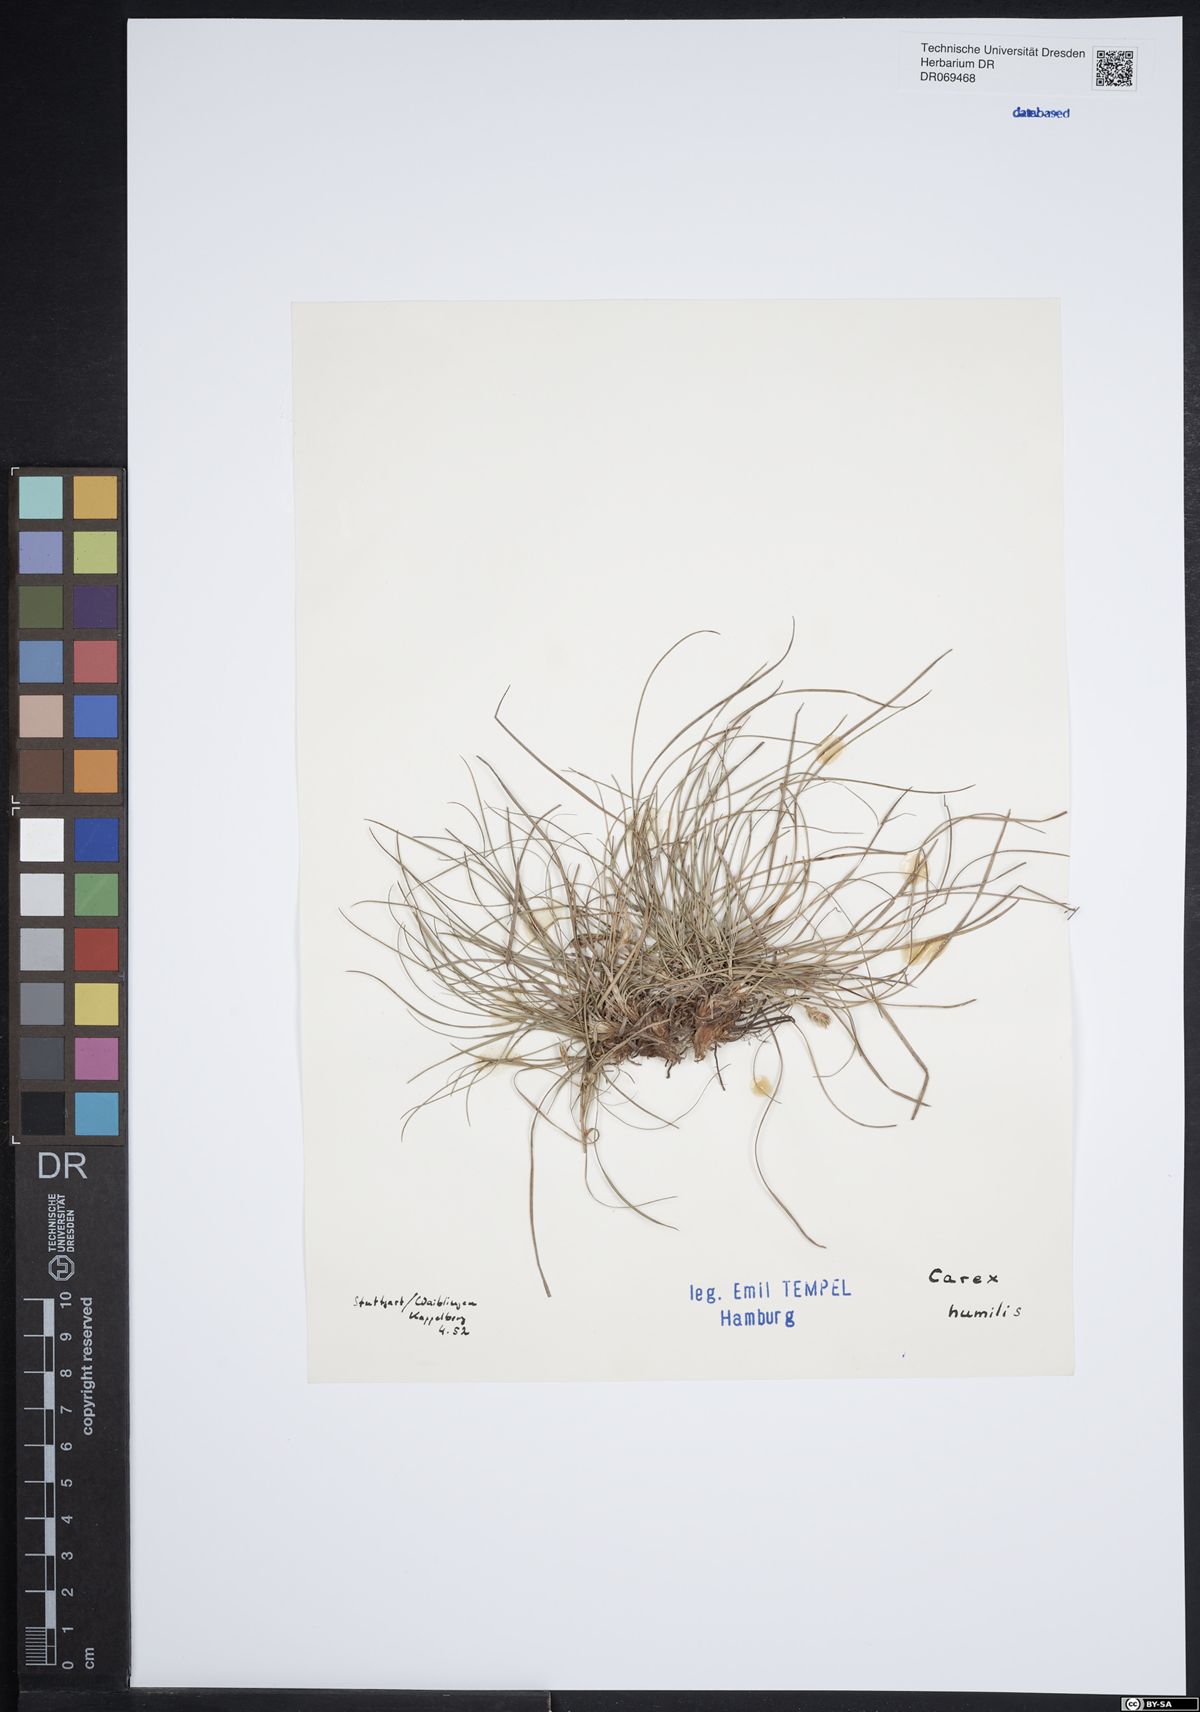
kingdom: Plantae
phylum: Tracheophyta
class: Liliopsida
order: Poales
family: Cyperaceae
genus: Carex
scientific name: Carex humilis
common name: Dwarf sedge
